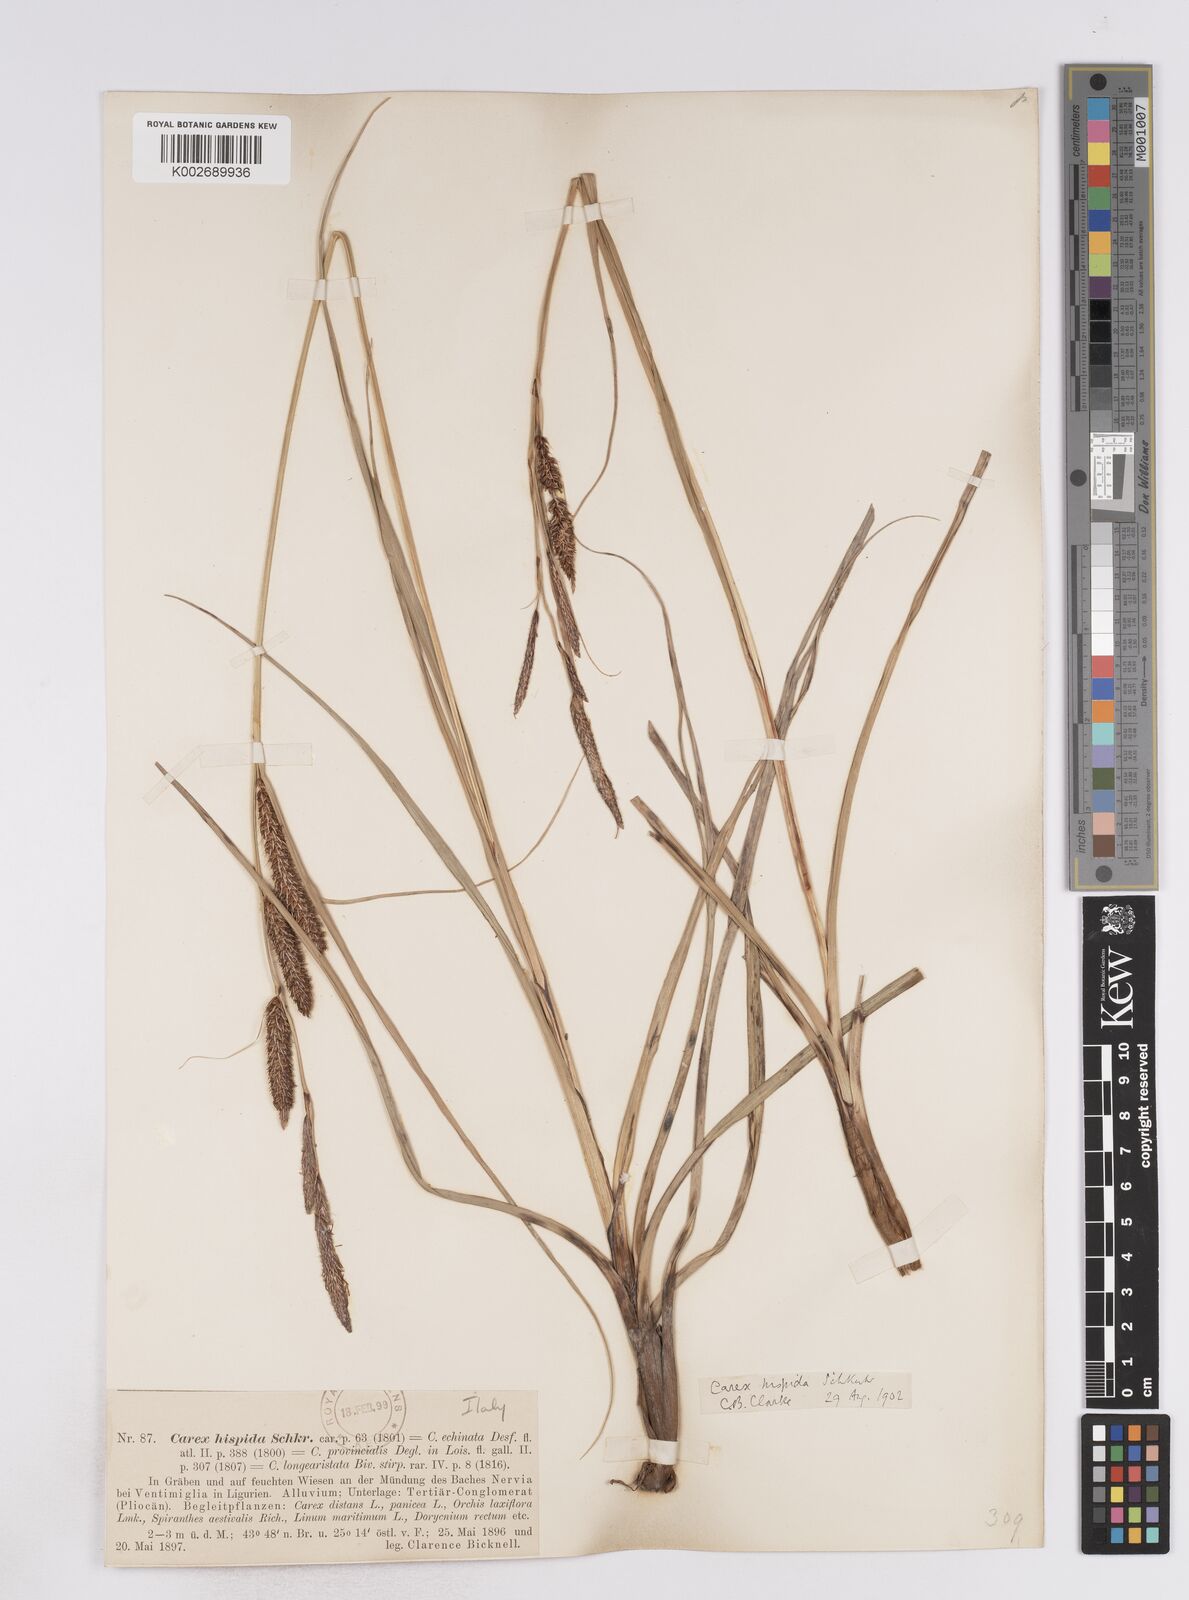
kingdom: Plantae
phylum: Tracheophyta
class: Liliopsida
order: Poales
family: Cyperaceae
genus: Carex
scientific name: Carex hispida
